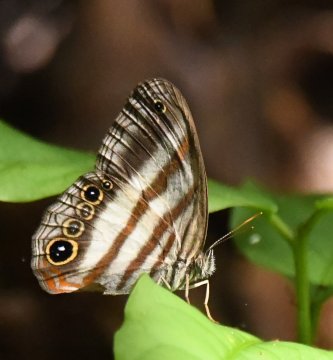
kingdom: Animalia
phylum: Arthropoda
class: Insecta
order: Lepidoptera
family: Nymphalidae
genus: Pareuptychia
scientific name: Pareuptychia hesione
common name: White Satyr
